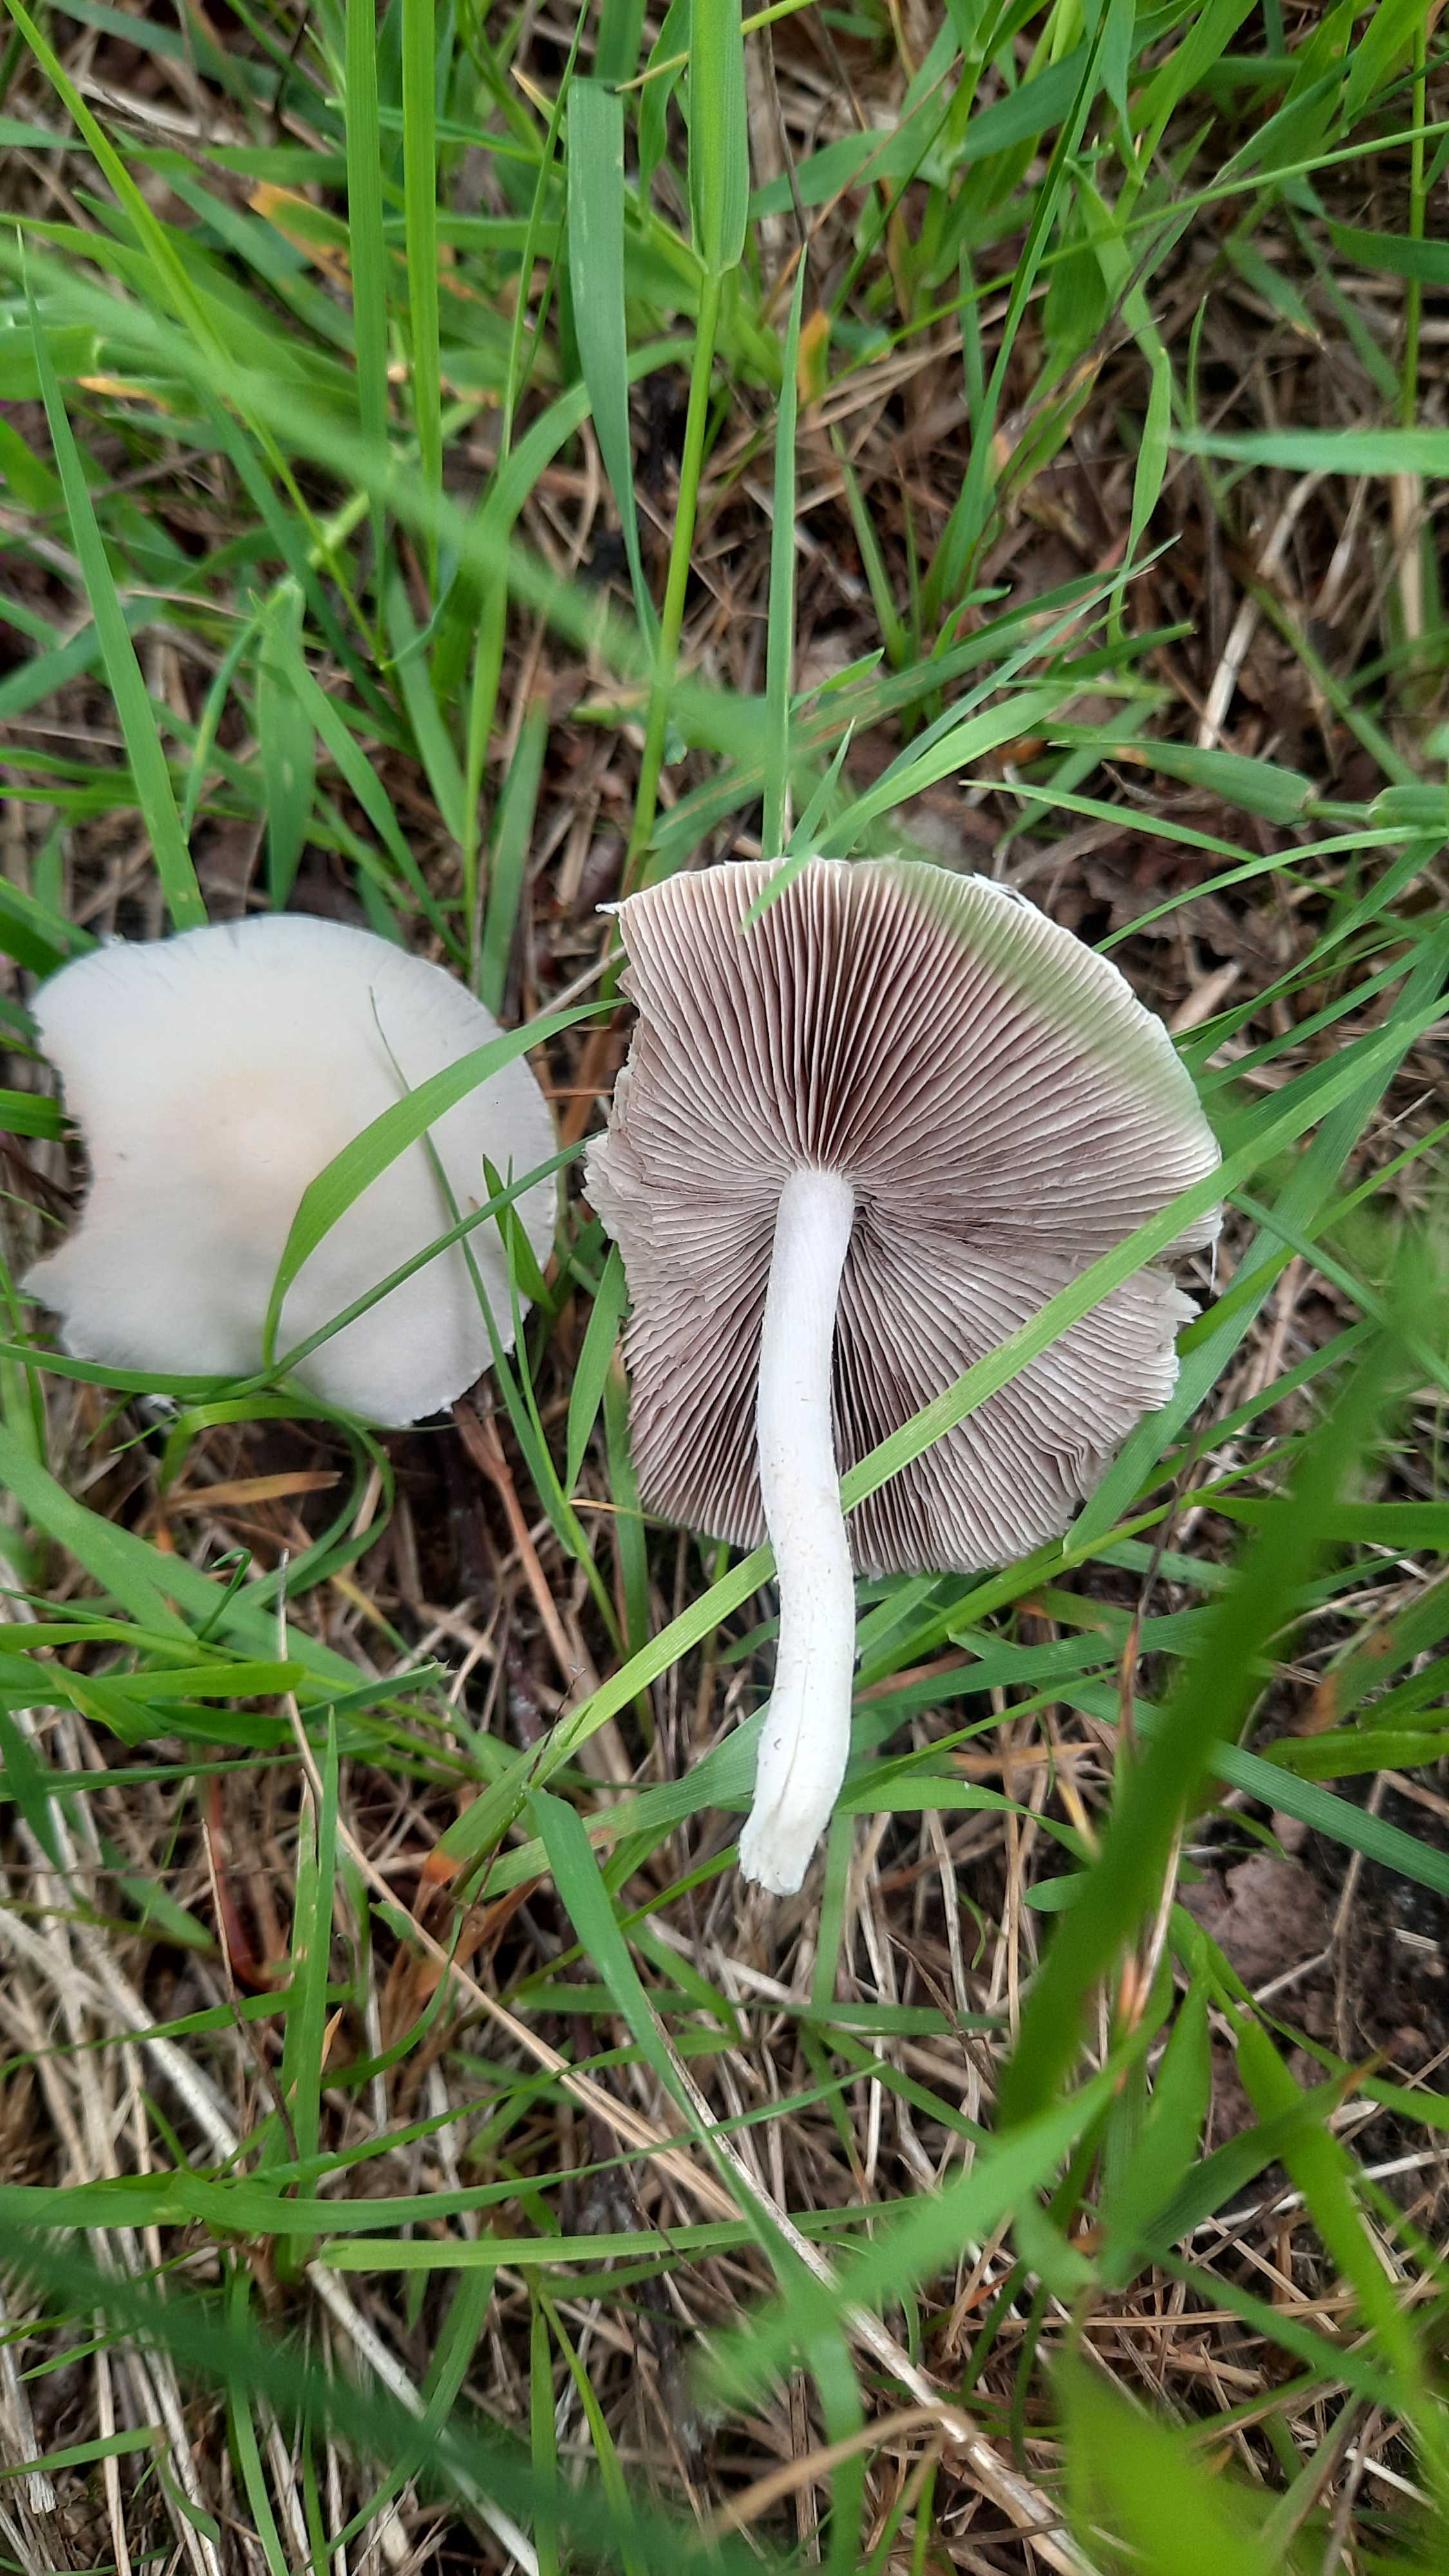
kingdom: Fungi
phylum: Basidiomycota
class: Agaricomycetes
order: Agaricales
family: Psathyrellaceae
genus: Candolleomyces
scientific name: Candolleomyces candolleanus
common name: Candolles mørkhat
